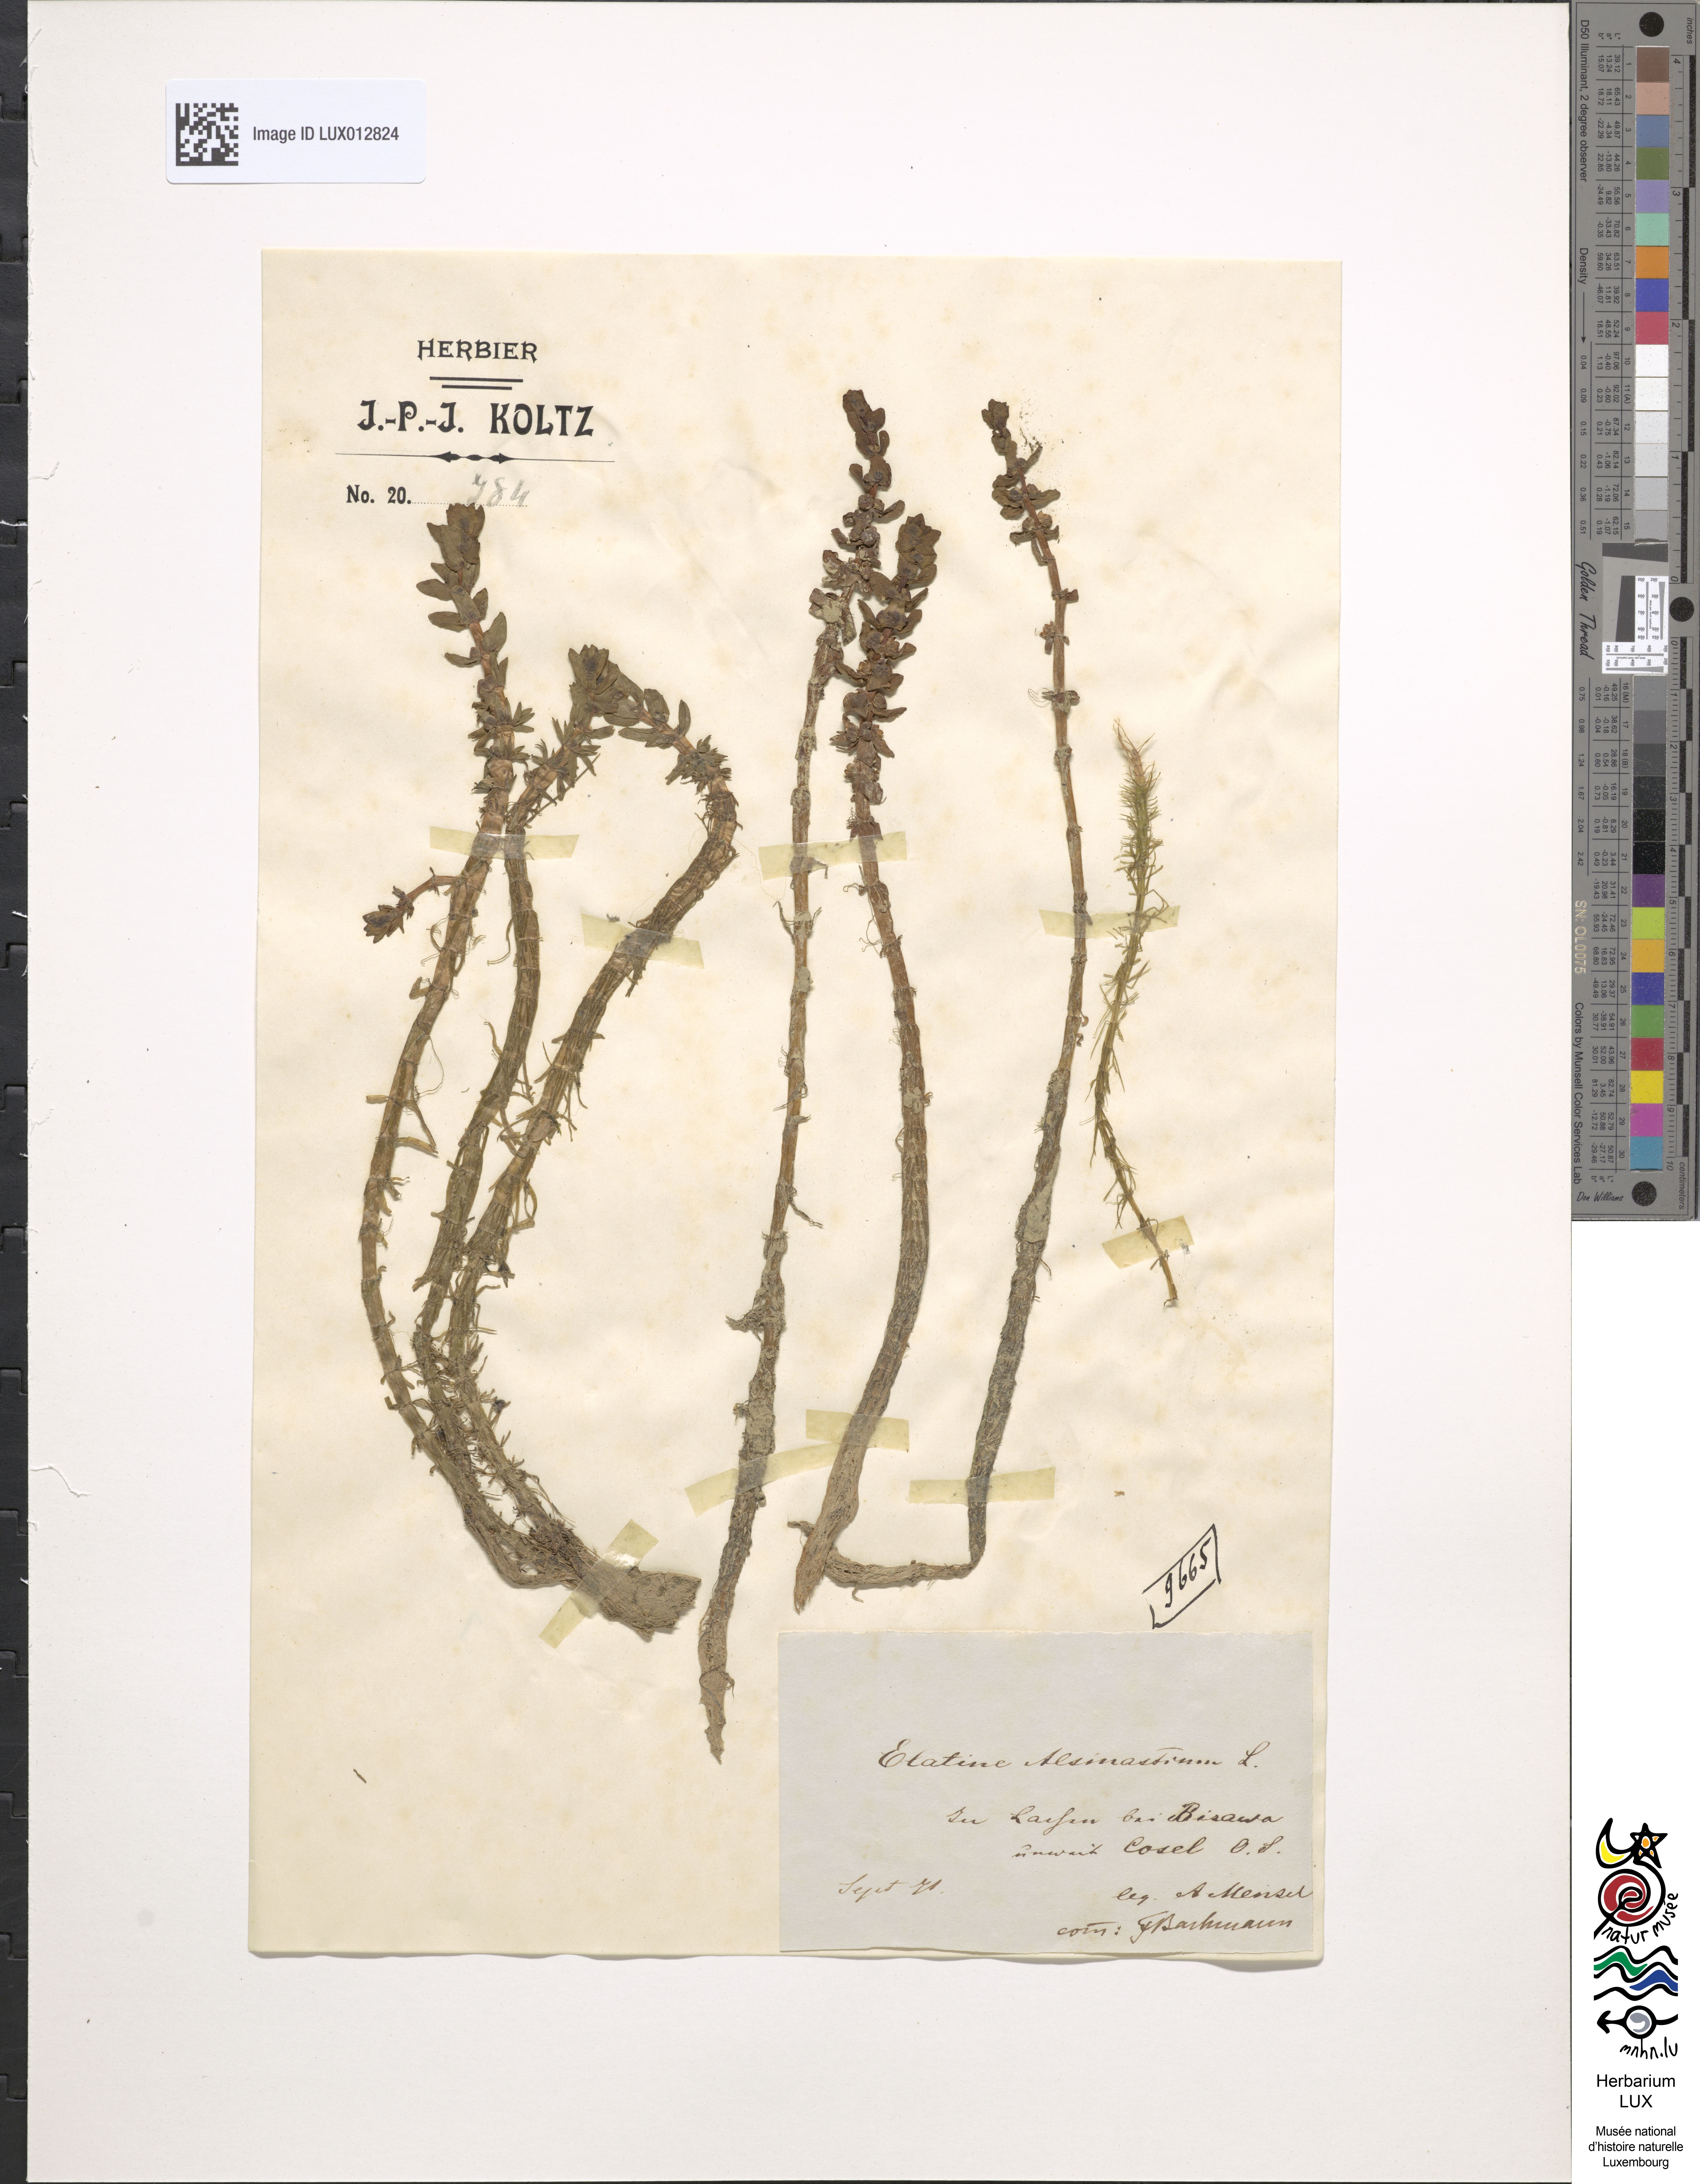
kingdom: Plantae
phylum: Tracheophyta
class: Magnoliopsida
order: Malpighiales
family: Elatinaceae
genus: Elatine
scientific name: Elatine alsinastrum
